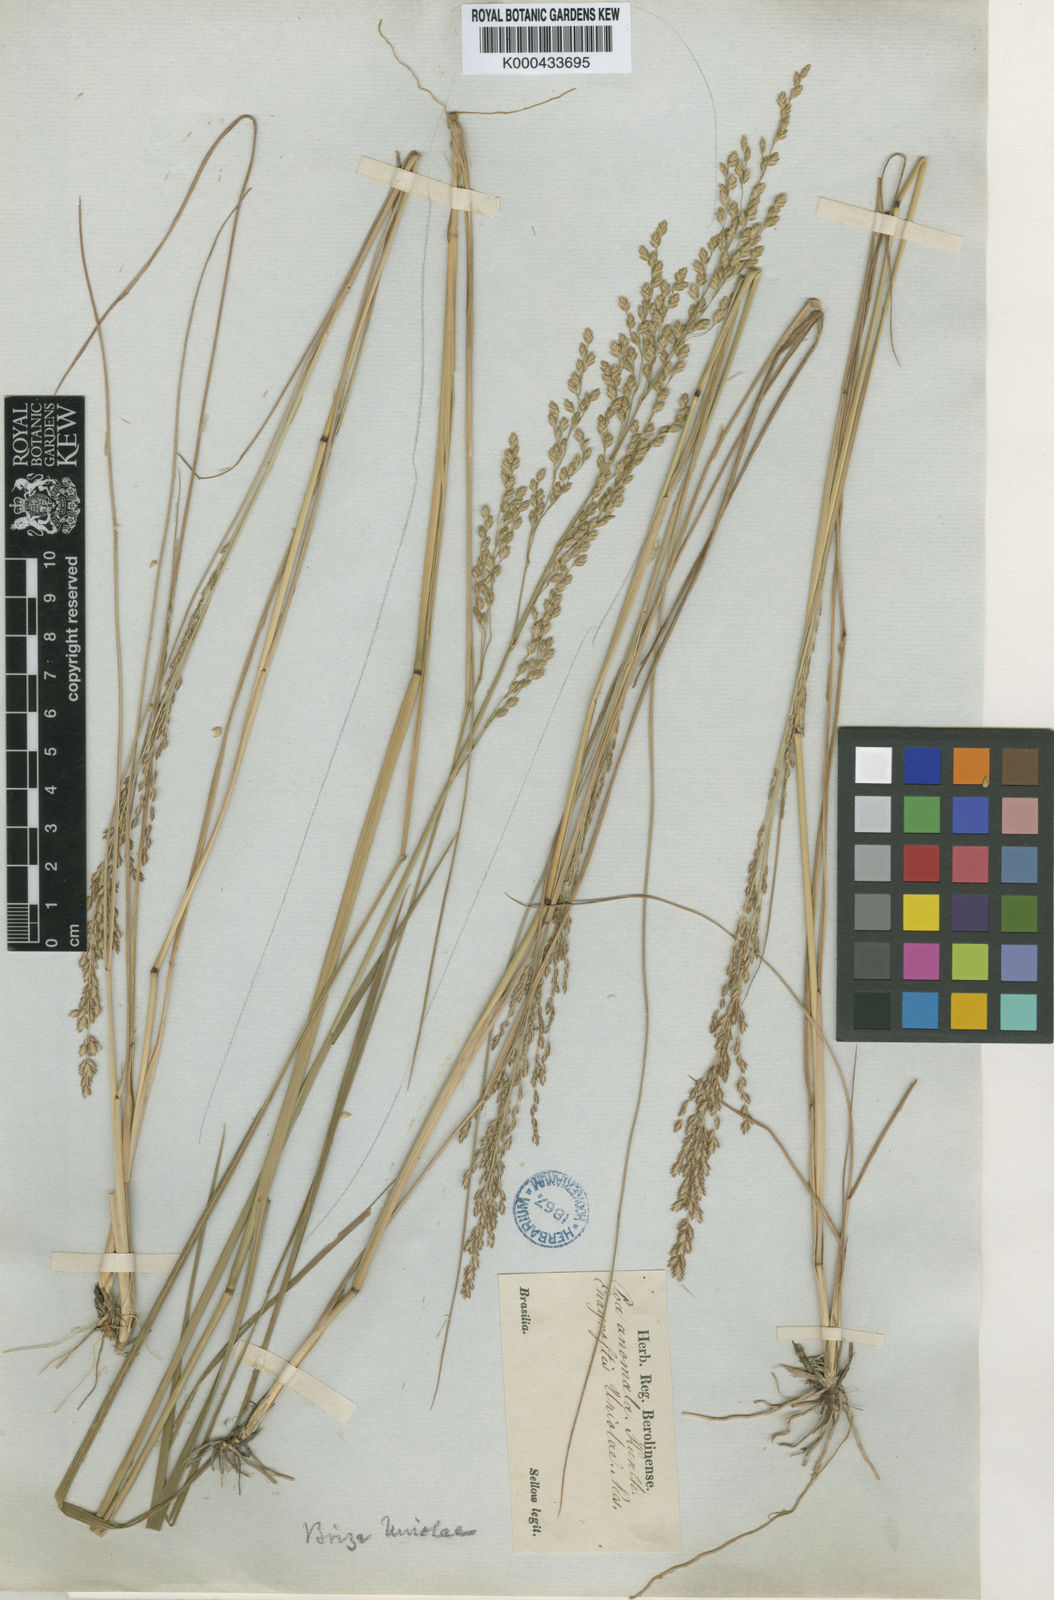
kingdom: Plantae
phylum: Tracheophyta
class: Liliopsida
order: Poales
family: Poaceae
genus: Poidium
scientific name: Poidium calotheca
